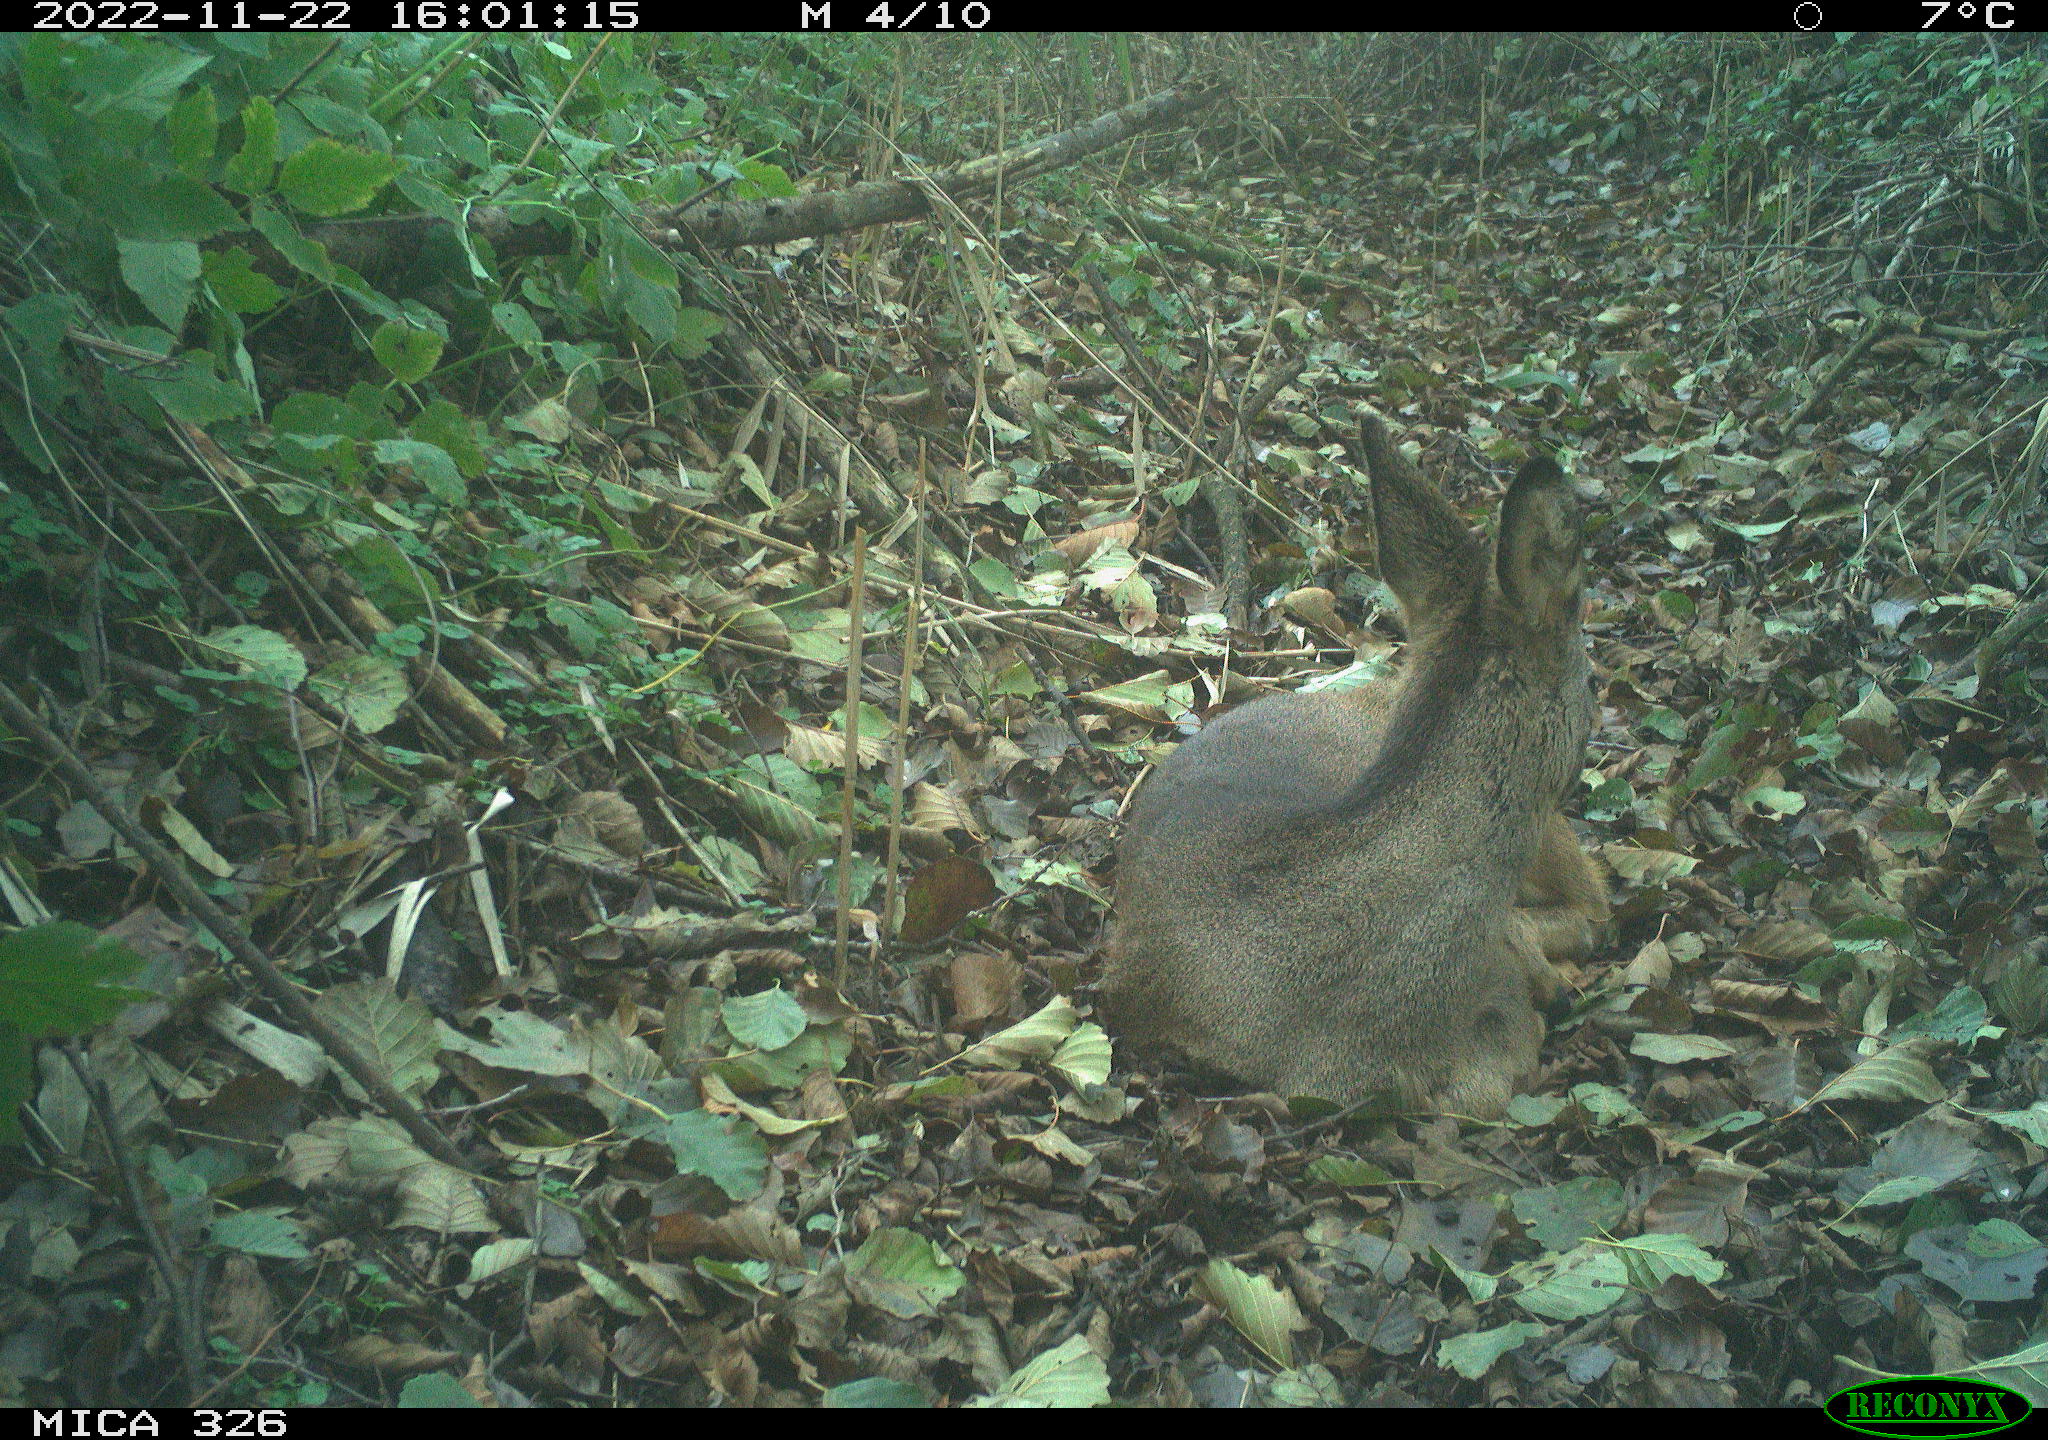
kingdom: Animalia
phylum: Chordata
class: Mammalia
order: Artiodactyla
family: Cervidae
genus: Capreolus
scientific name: Capreolus capreolus
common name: Western roe deer
